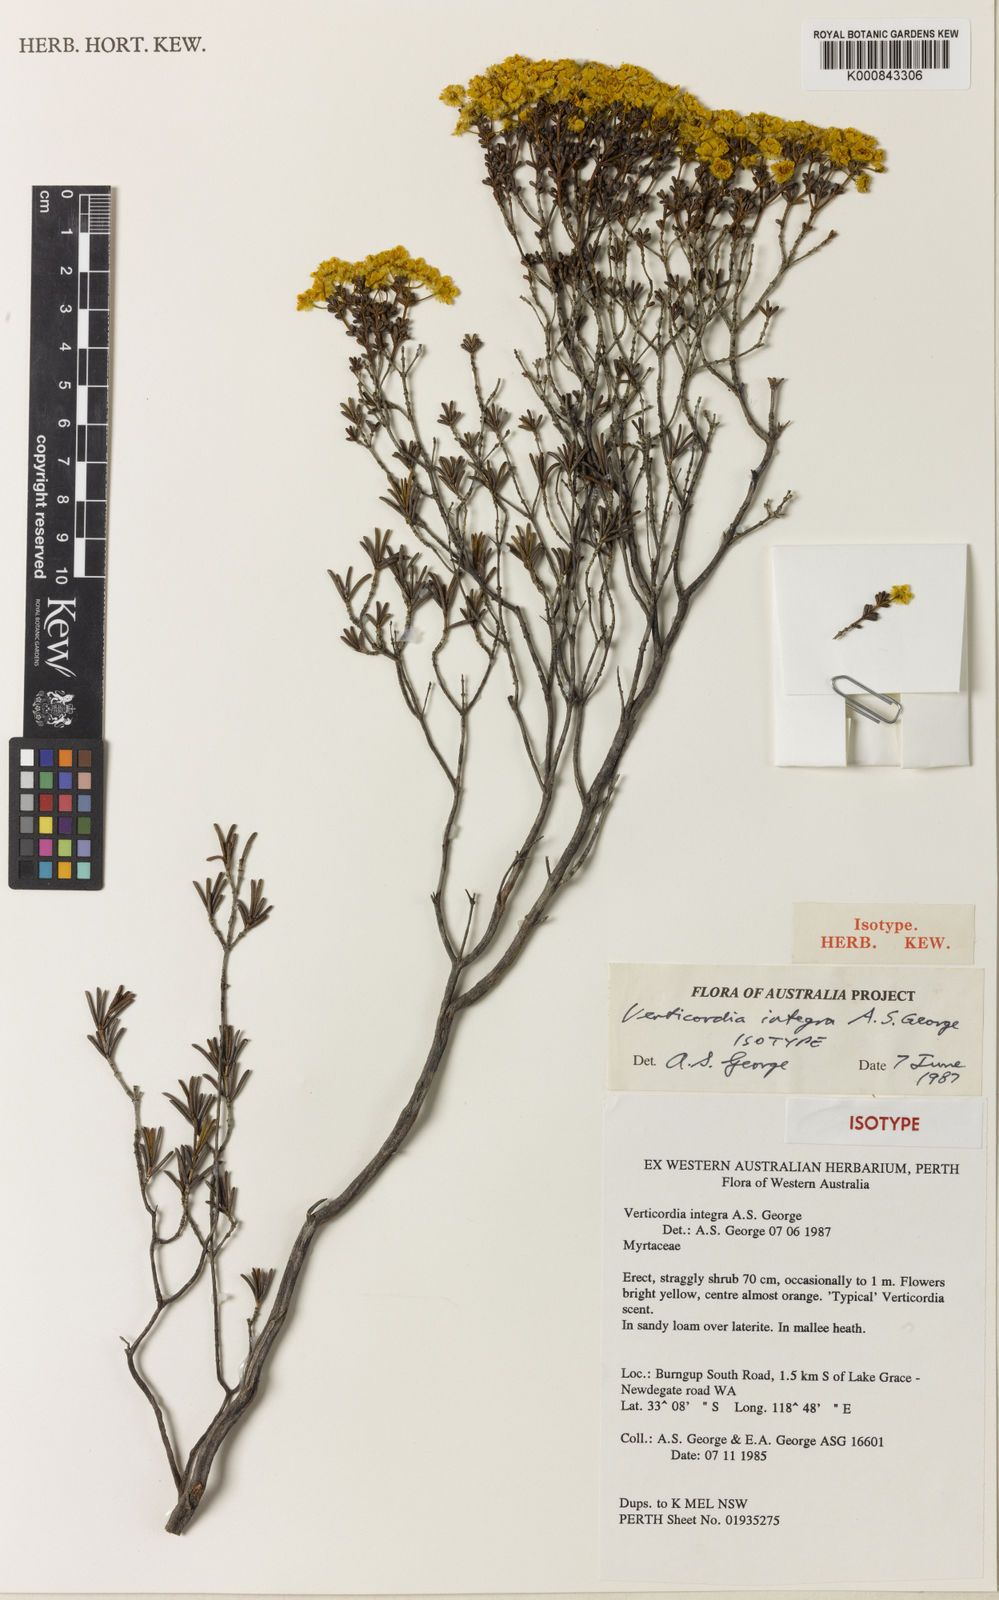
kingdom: Plantae
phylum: Tracheophyta
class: Magnoliopsida
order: Myrtales
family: Myrtaceae
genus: Verticordia
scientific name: Verticordia integra
